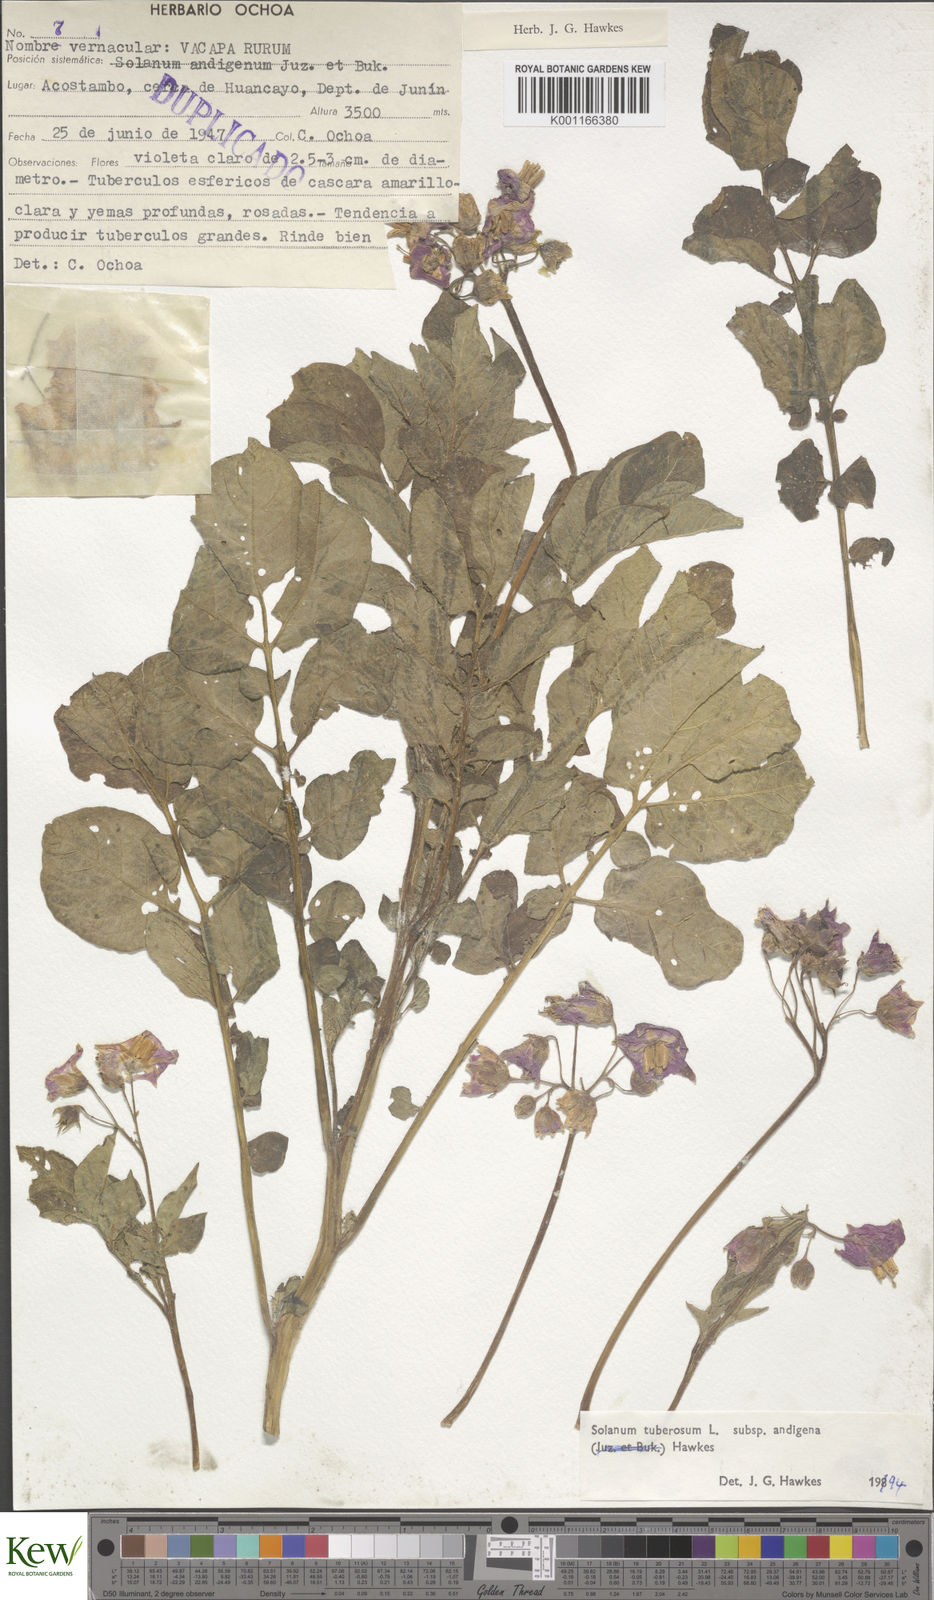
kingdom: Plantae
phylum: Tracheophyta
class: Magnoliopsida
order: Solanales
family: Solanaceae
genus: Solanum
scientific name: Solanum tuberosum
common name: Potato
